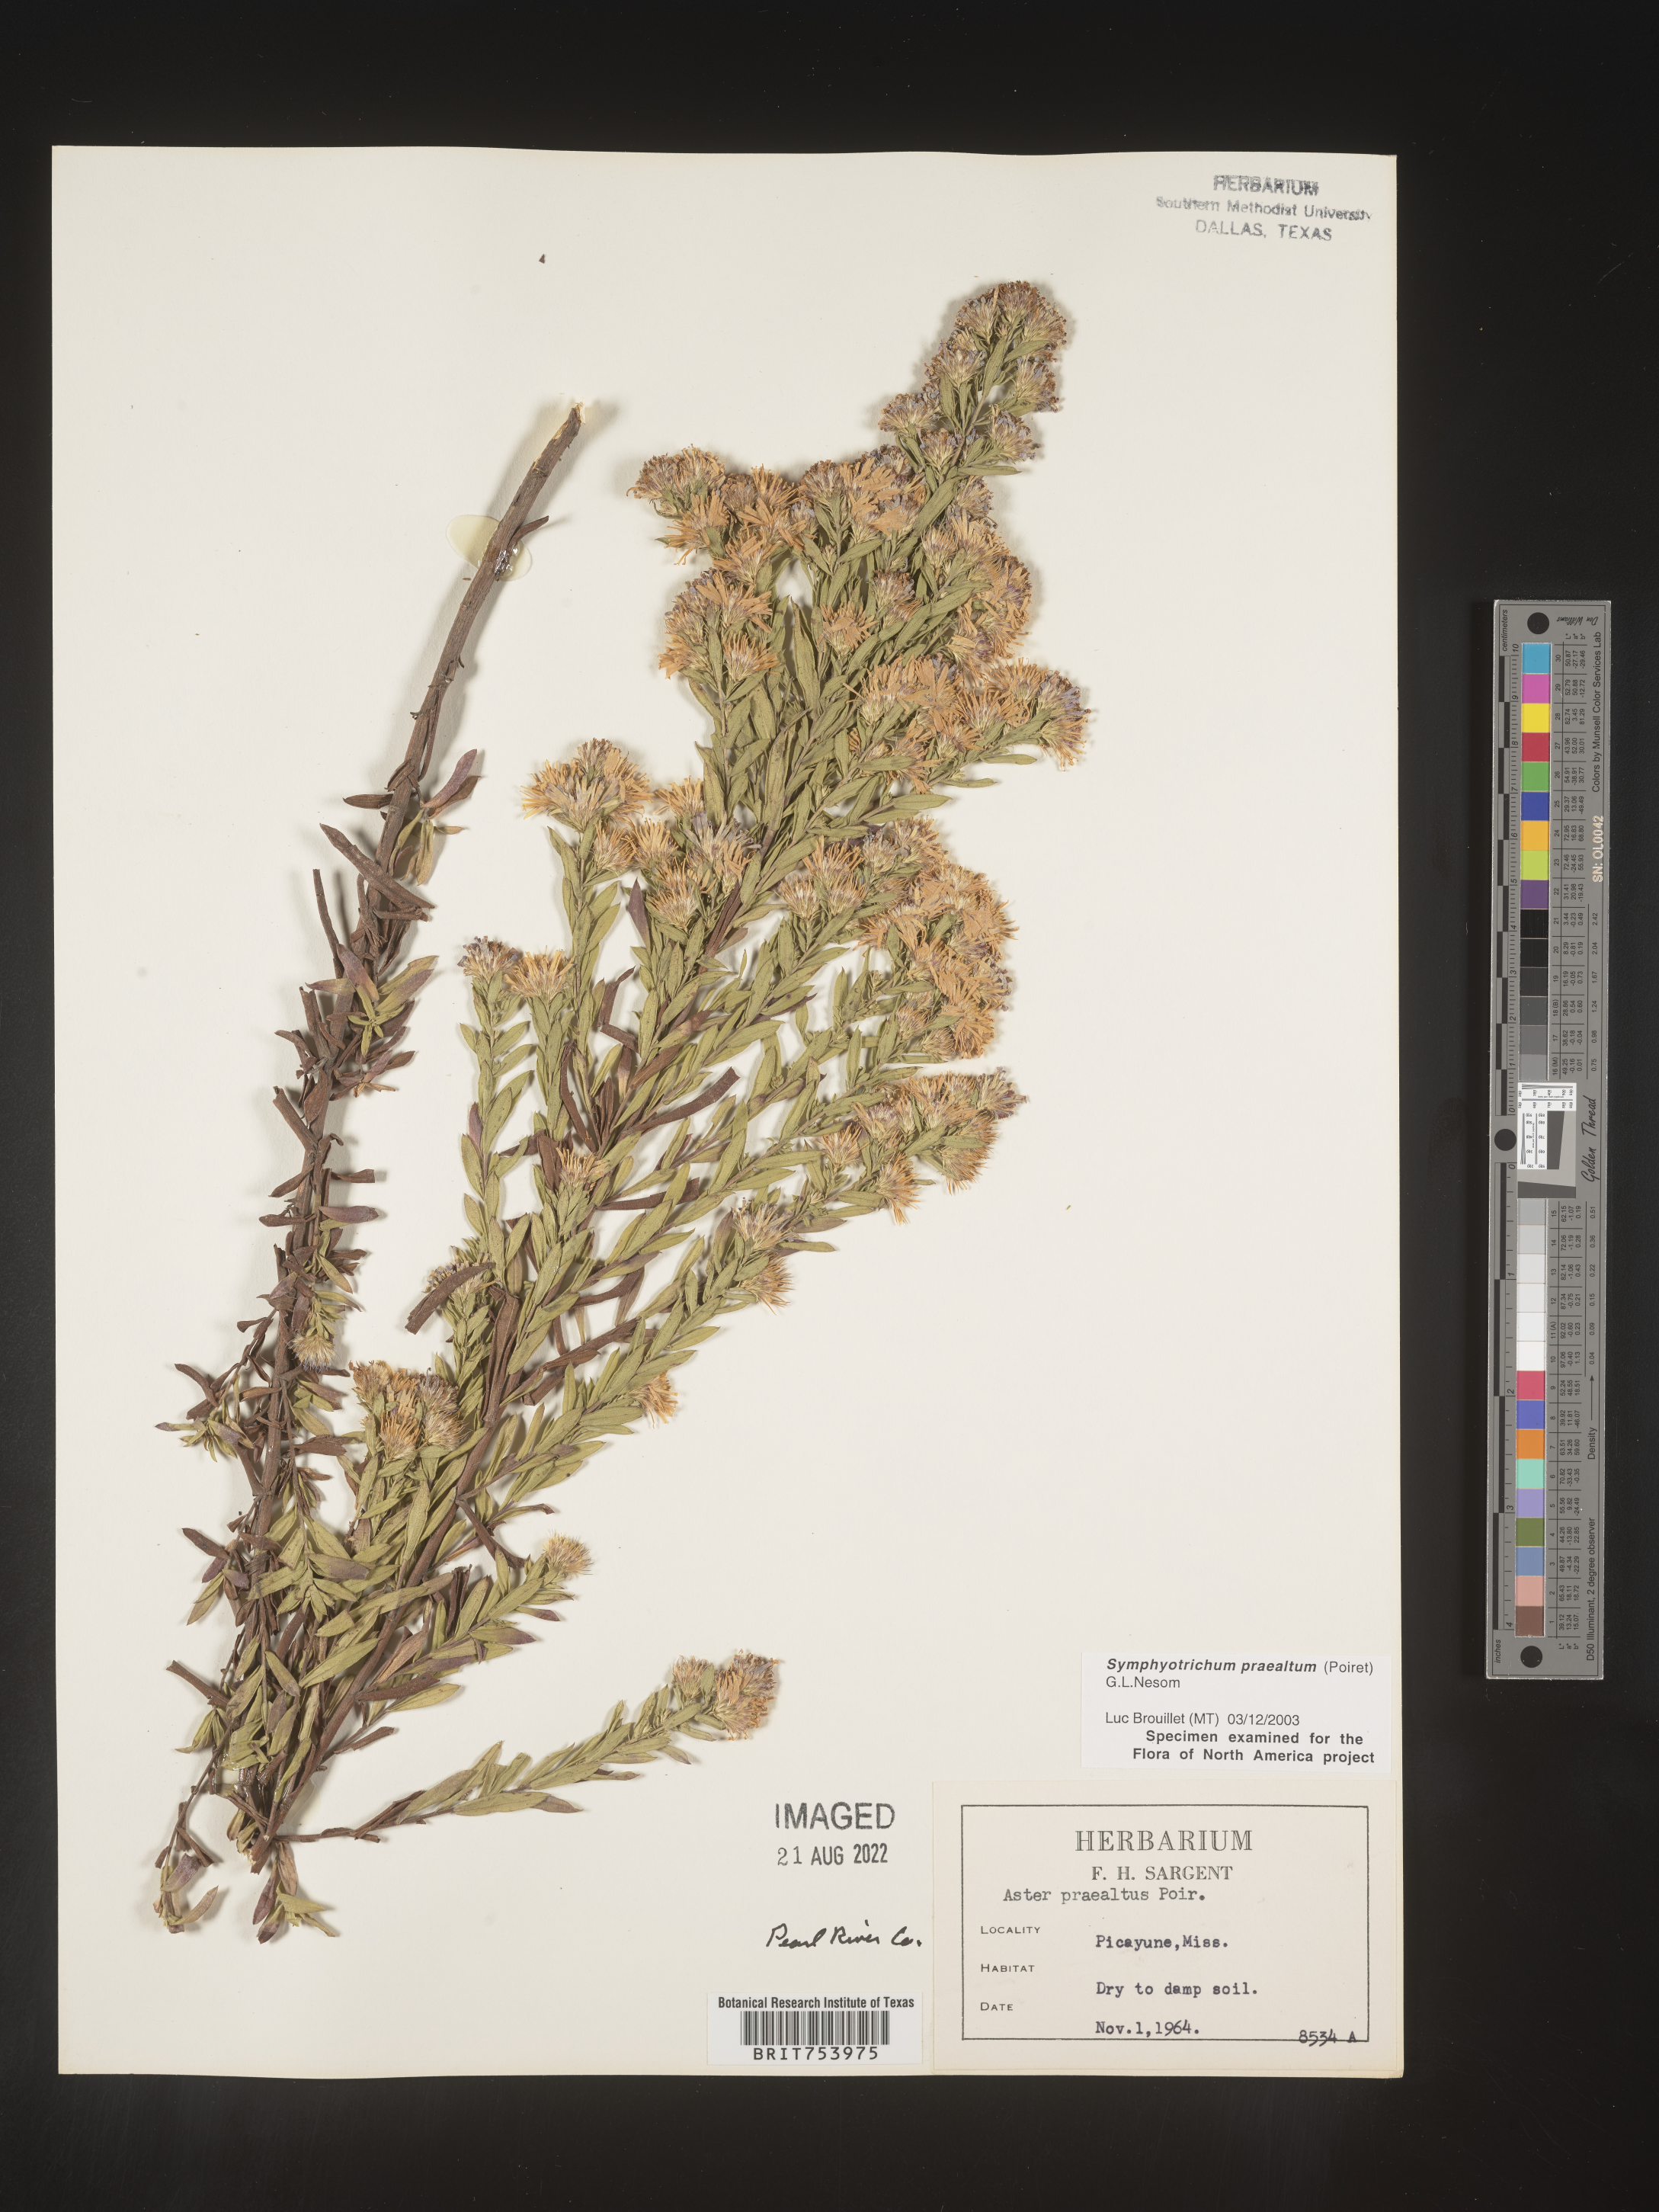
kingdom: Plantae
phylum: Tracheophyta
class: Magnoliopsida
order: Asterales
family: Asteraceae
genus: Symphyotrichum
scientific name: Symphyotrichum praealtum
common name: Willow aster
